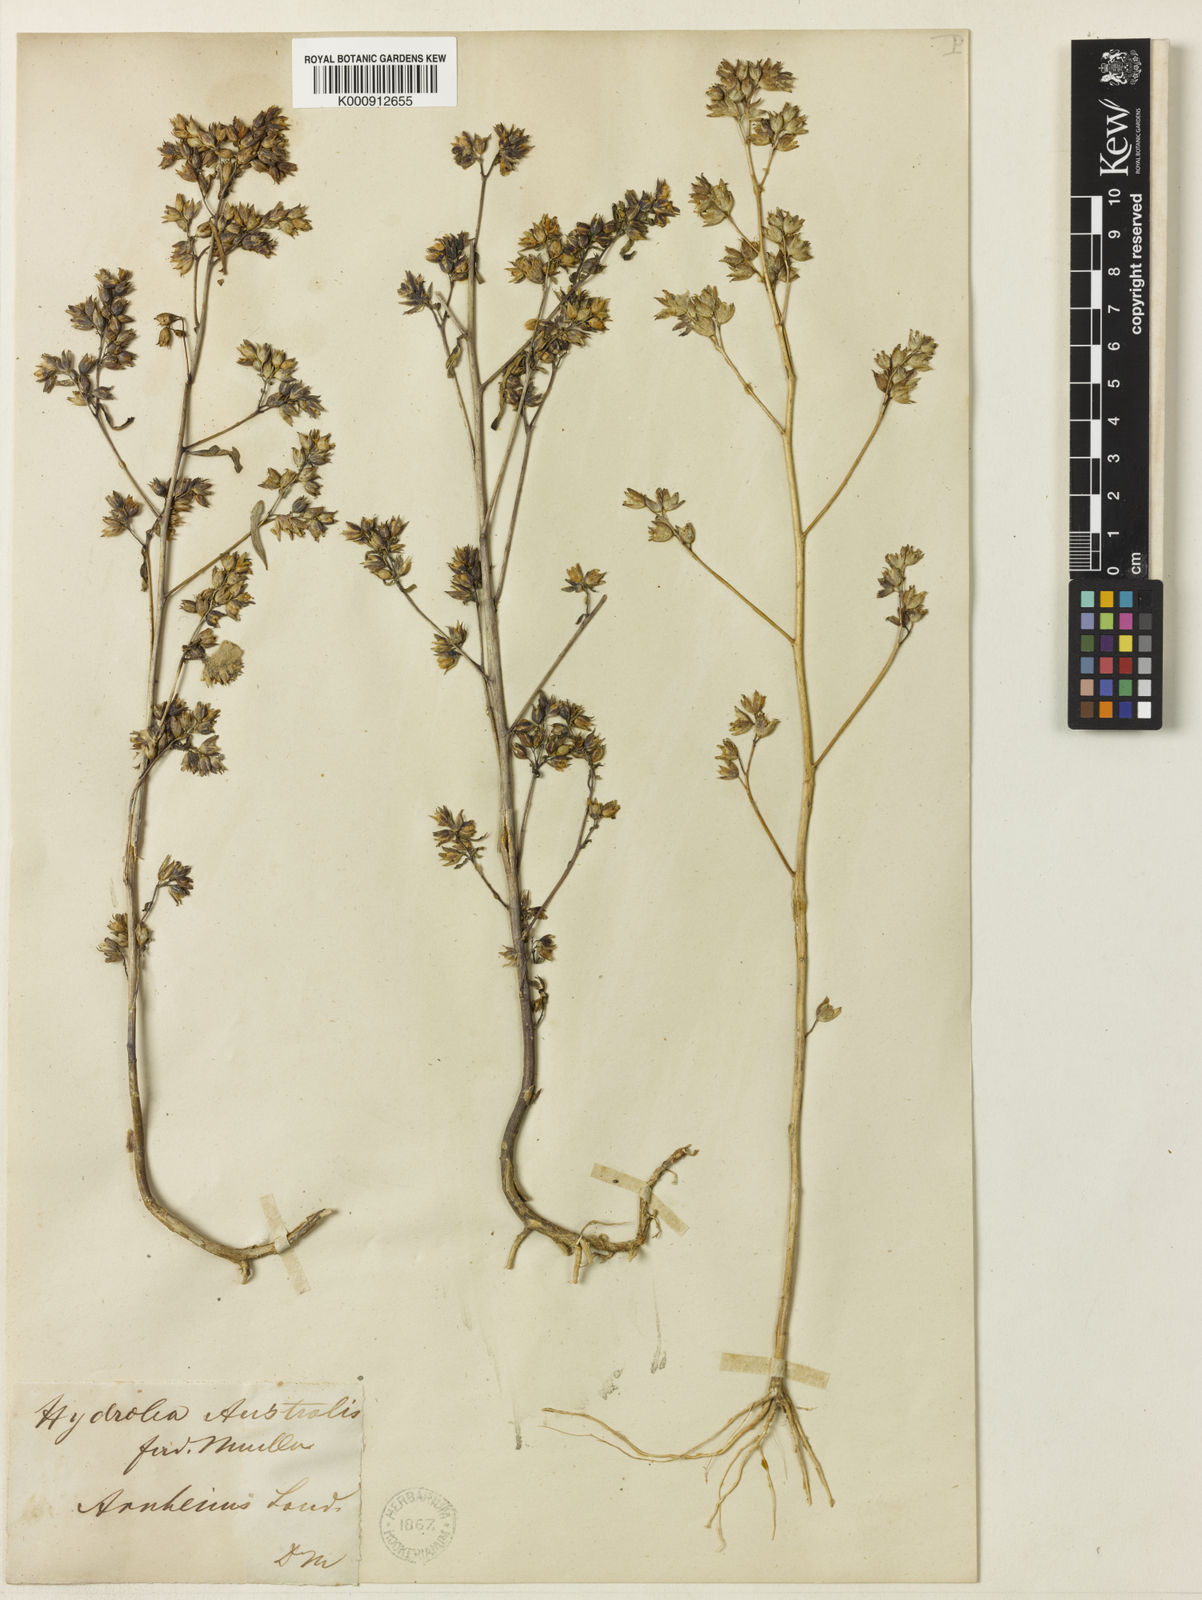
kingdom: Plantae
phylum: Tracheophyta
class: Magnoliopsida
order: Solanales
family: Hydroleaceae
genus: Hydrolea
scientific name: Hydrolea zeylanica
